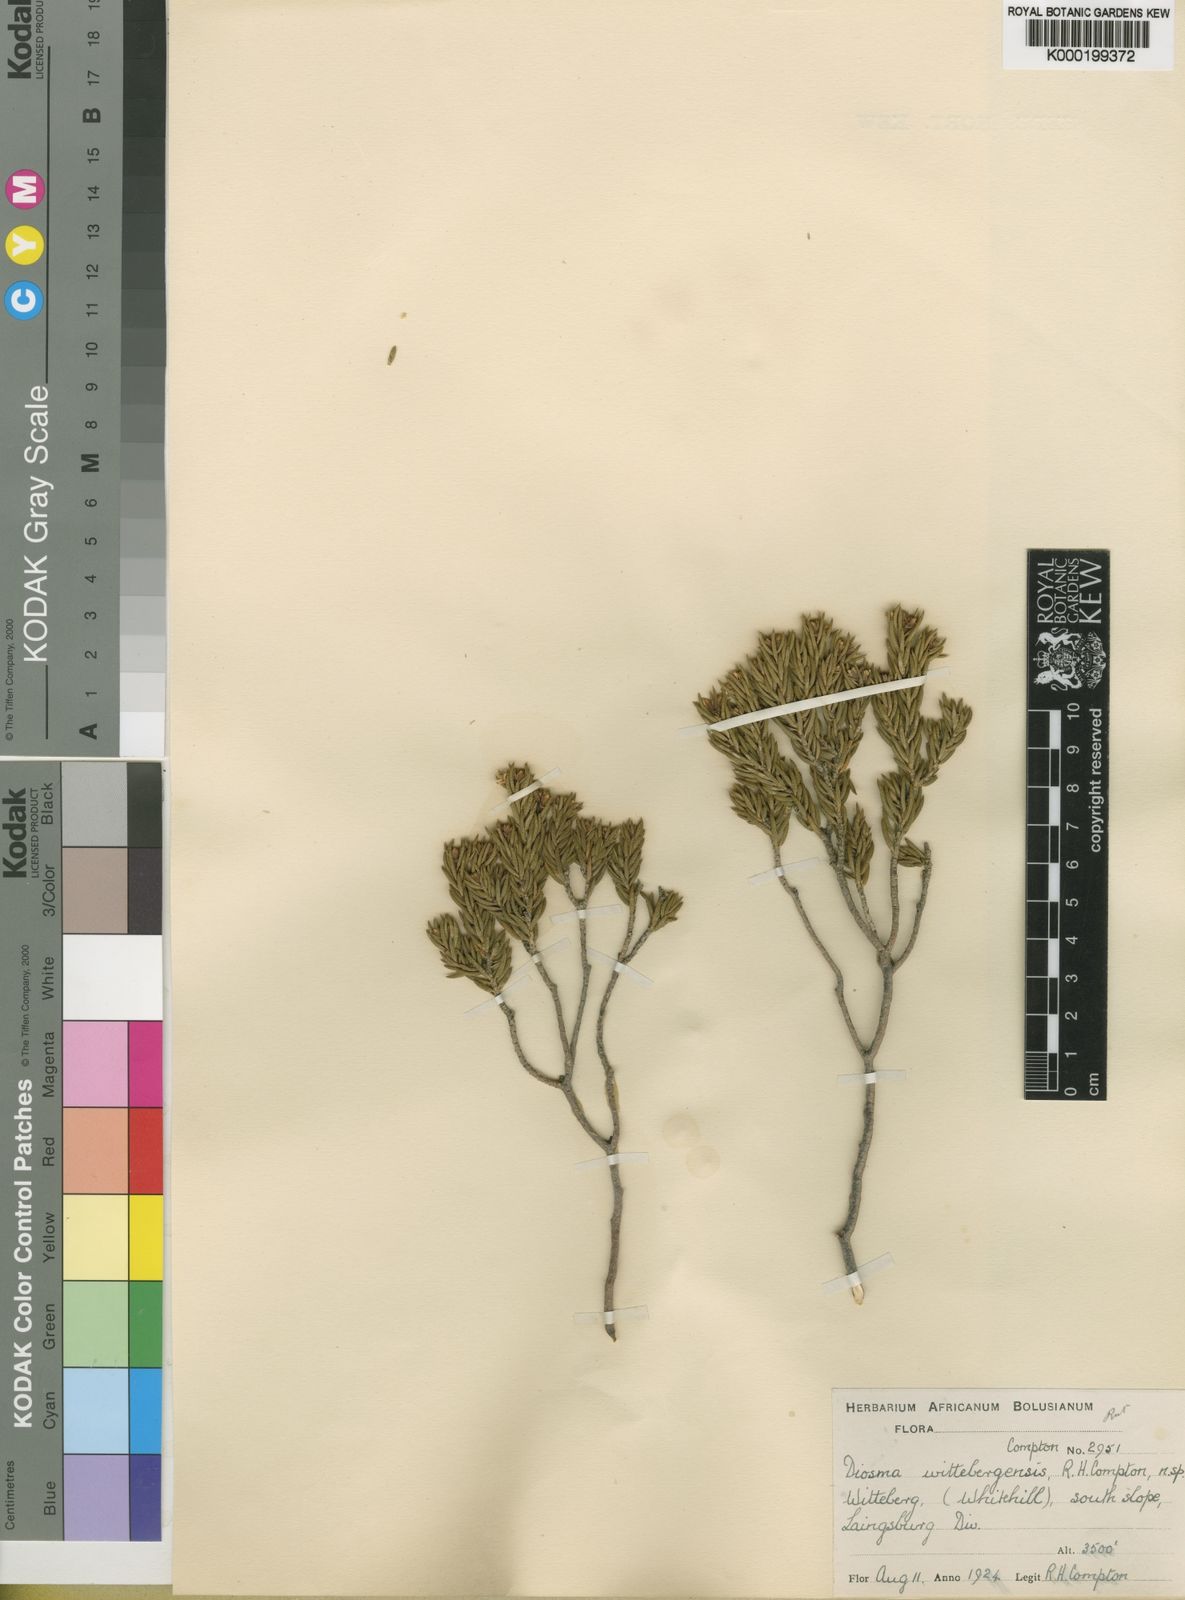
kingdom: Plantae
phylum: Tracheophyta
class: Magnoliopsida
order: Sapindales
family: Rutaceae
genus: Acradenia
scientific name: Acradenia
